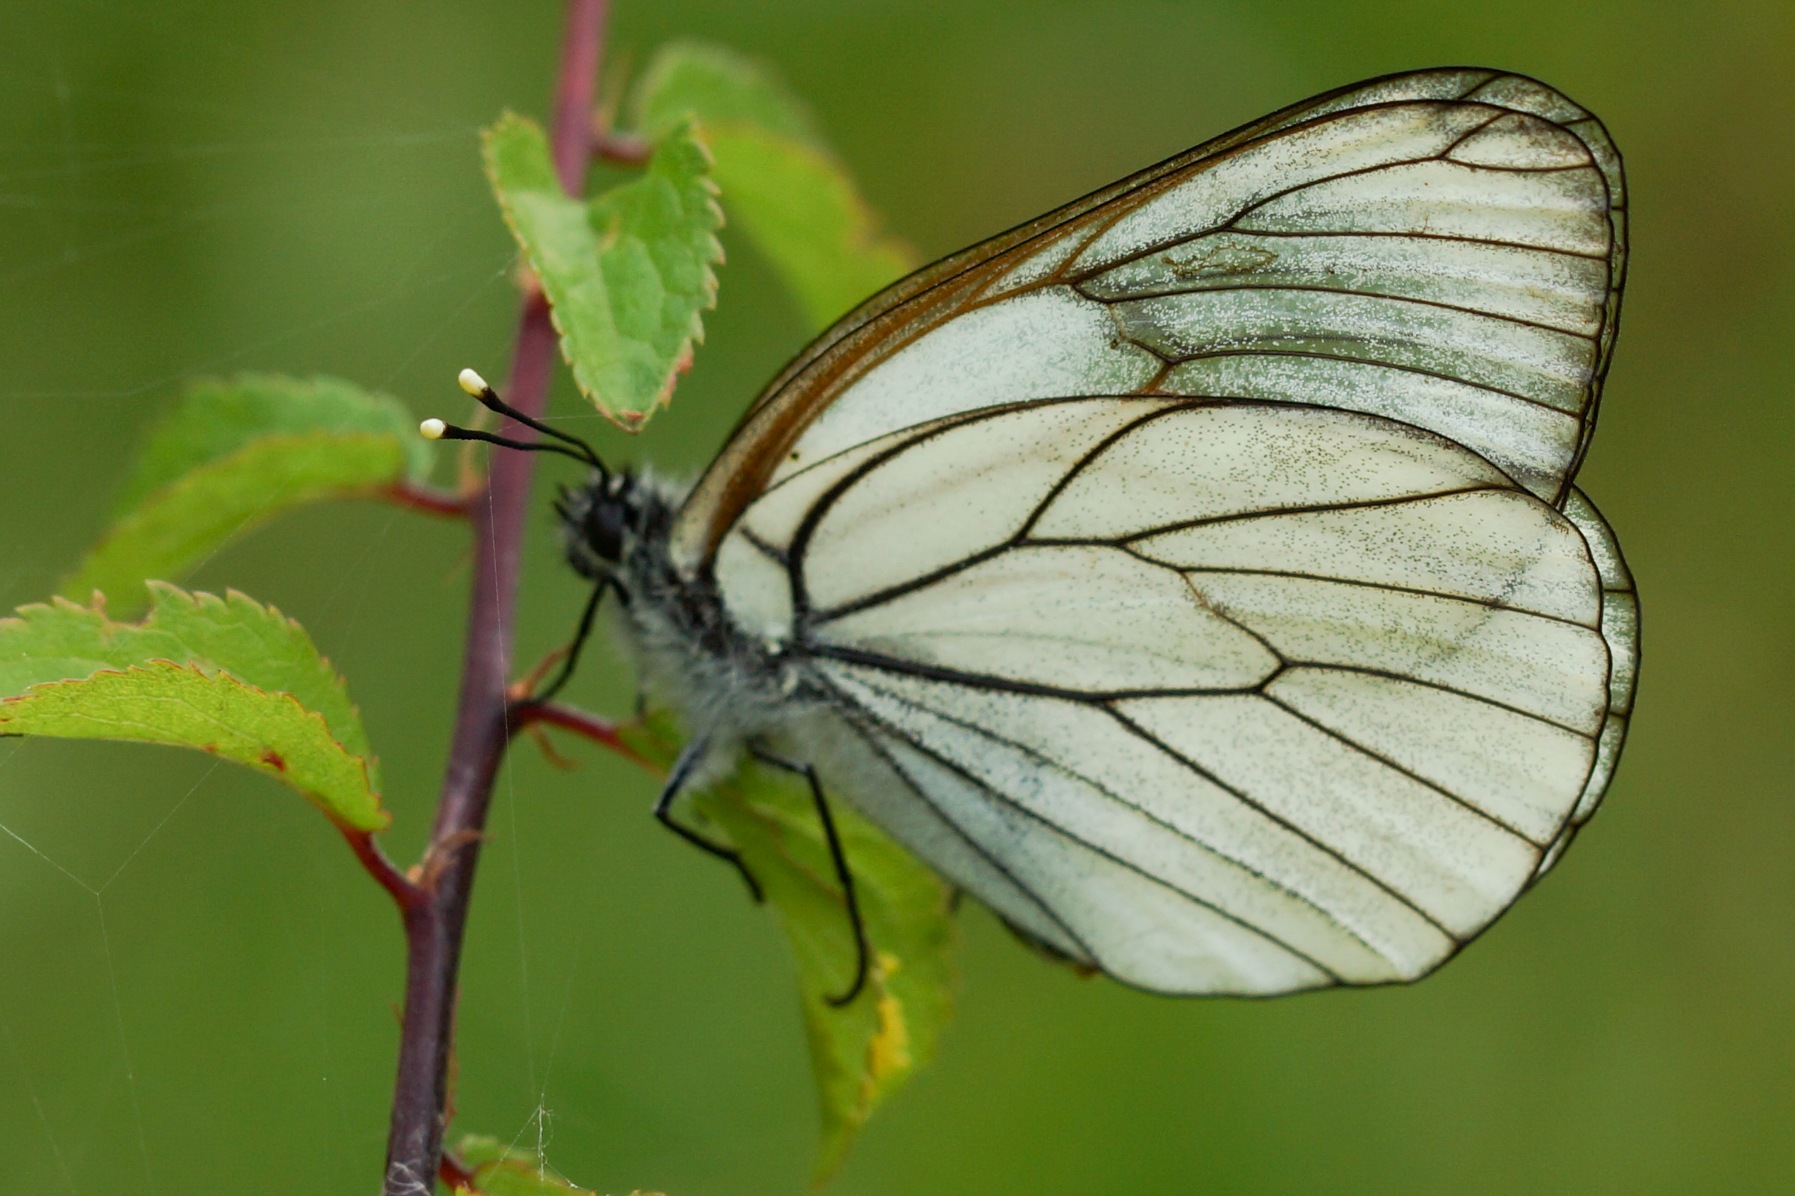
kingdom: Animalia
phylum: Arthropoda
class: Insecta
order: Lepidoptera
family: Pieridae
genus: Aporia
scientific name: Aporia crataegi
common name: Sortåret hvidvinge
